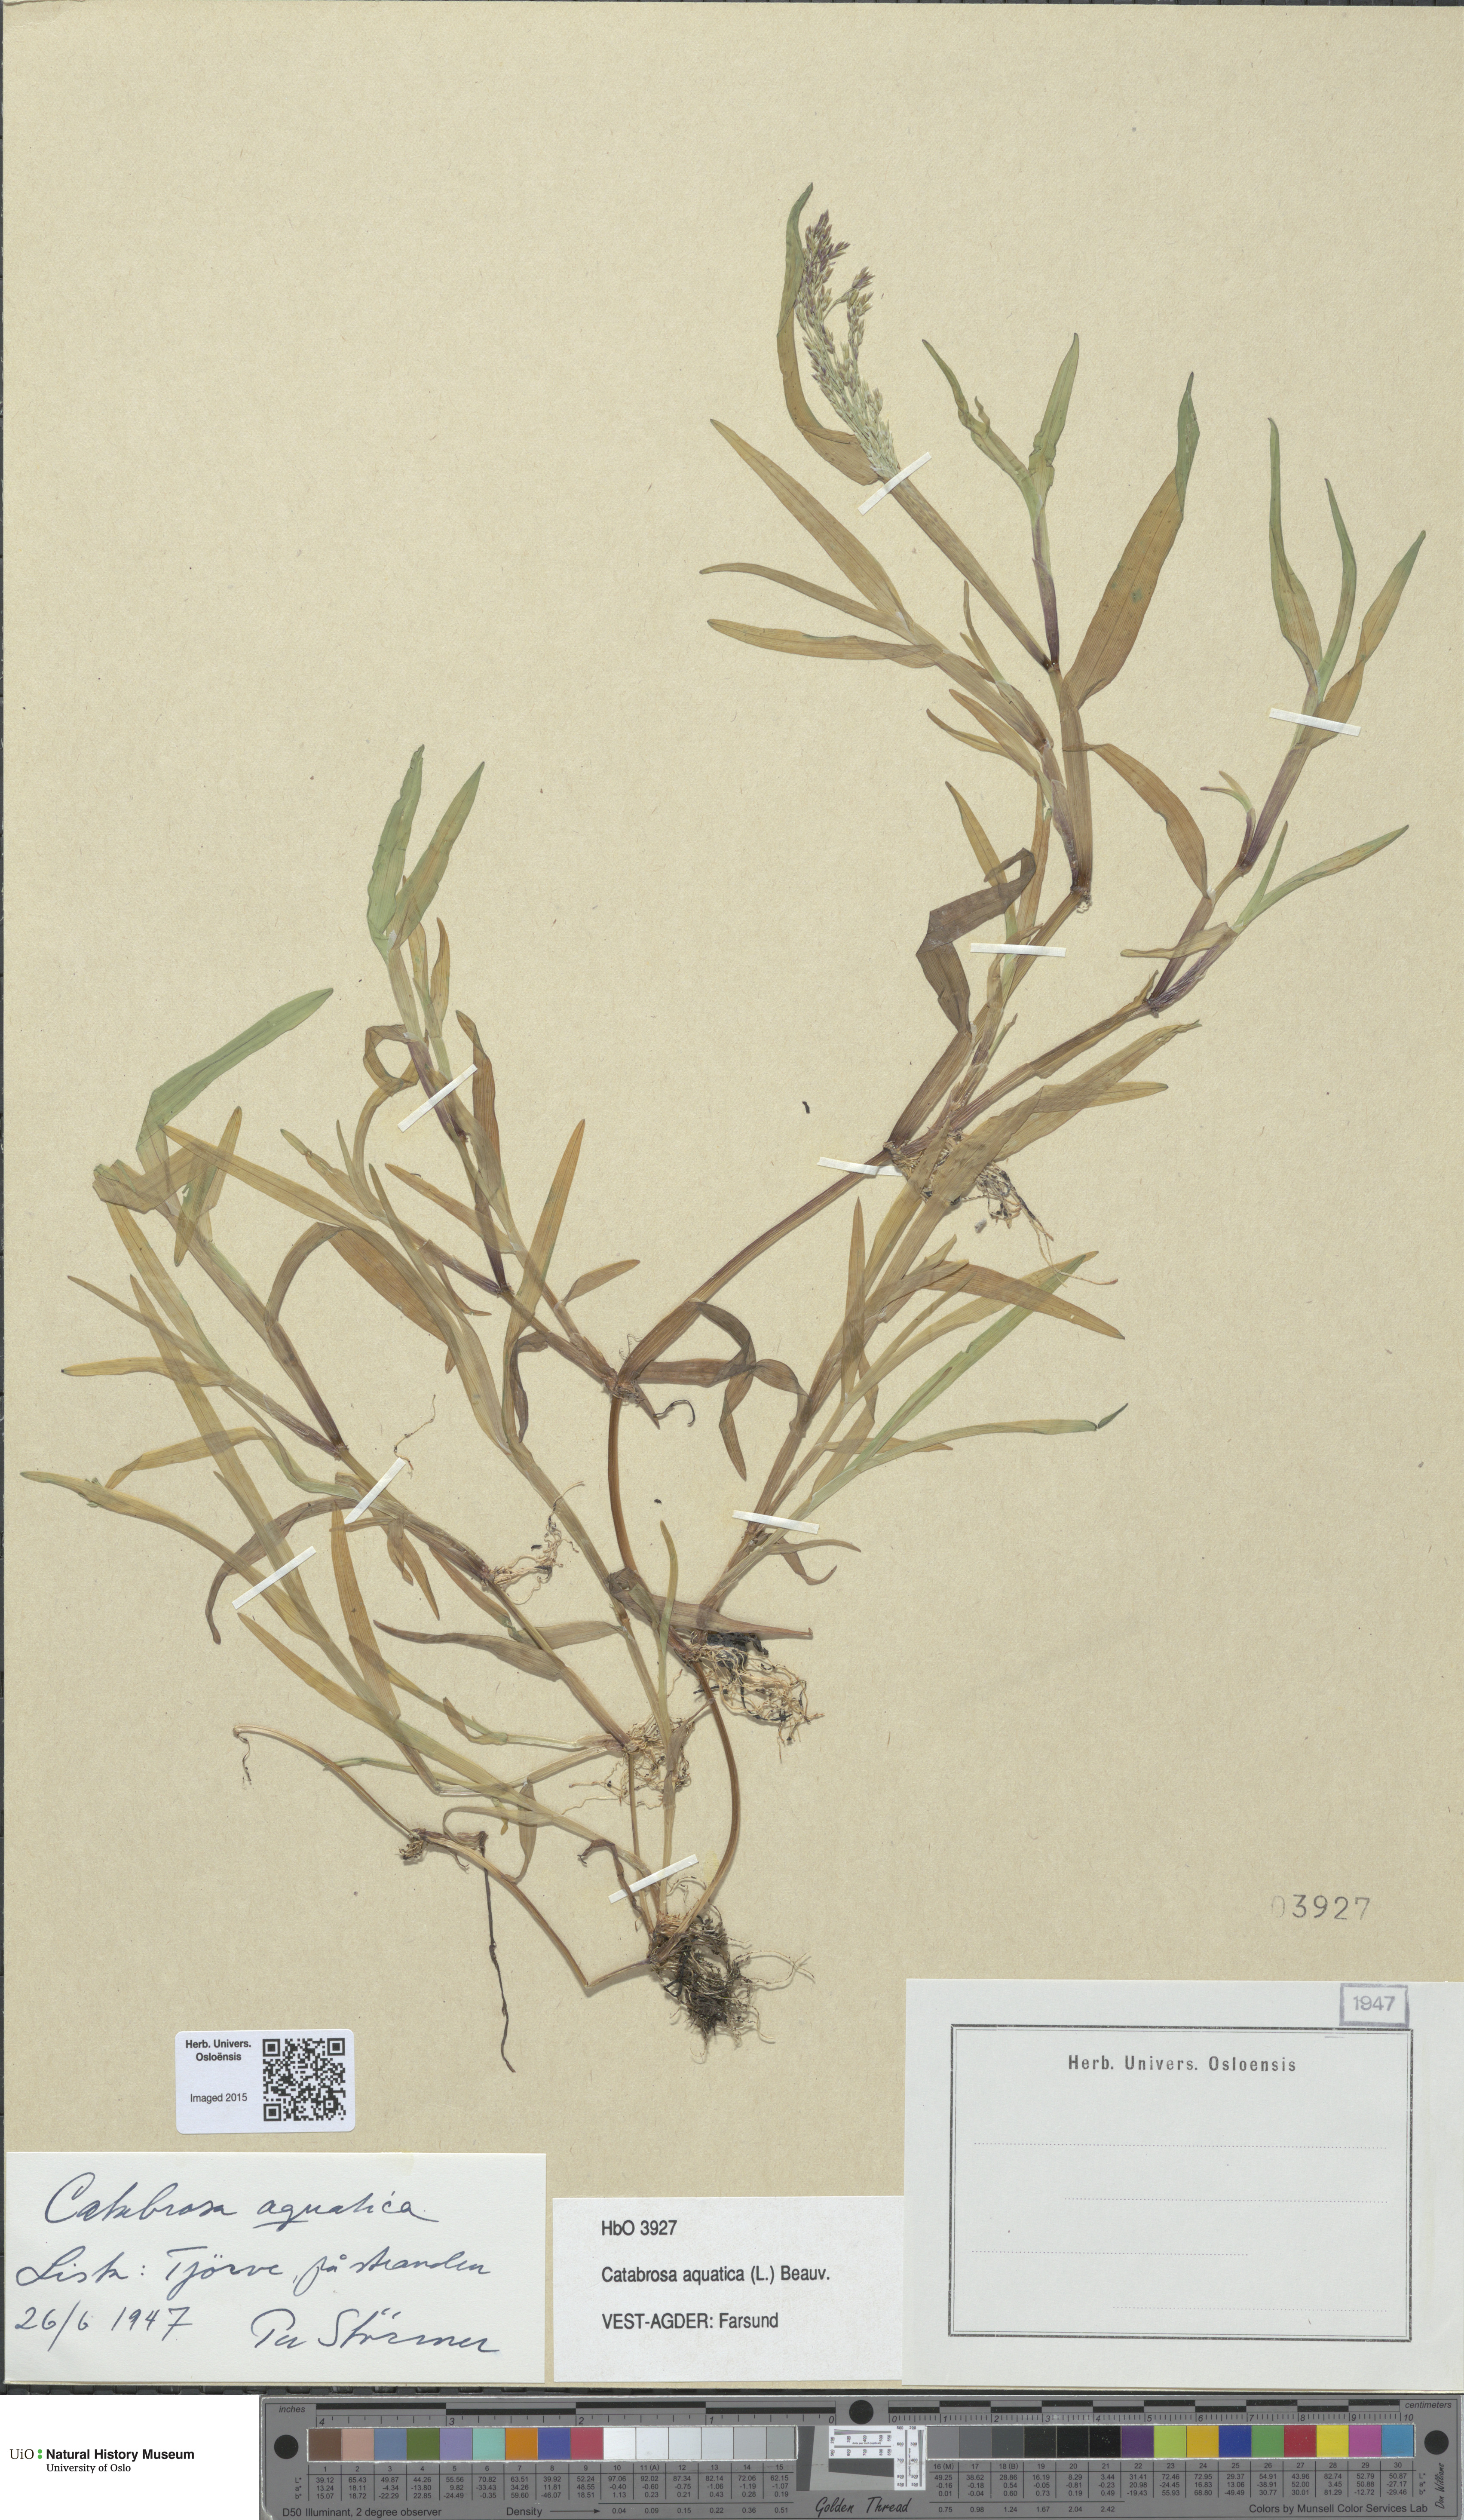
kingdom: Plantae
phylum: Tracheophyta
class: Liliopsida
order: Poales
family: Poaceae
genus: Catabrosa
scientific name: Catabrosa aquatica
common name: Whorl-grass
